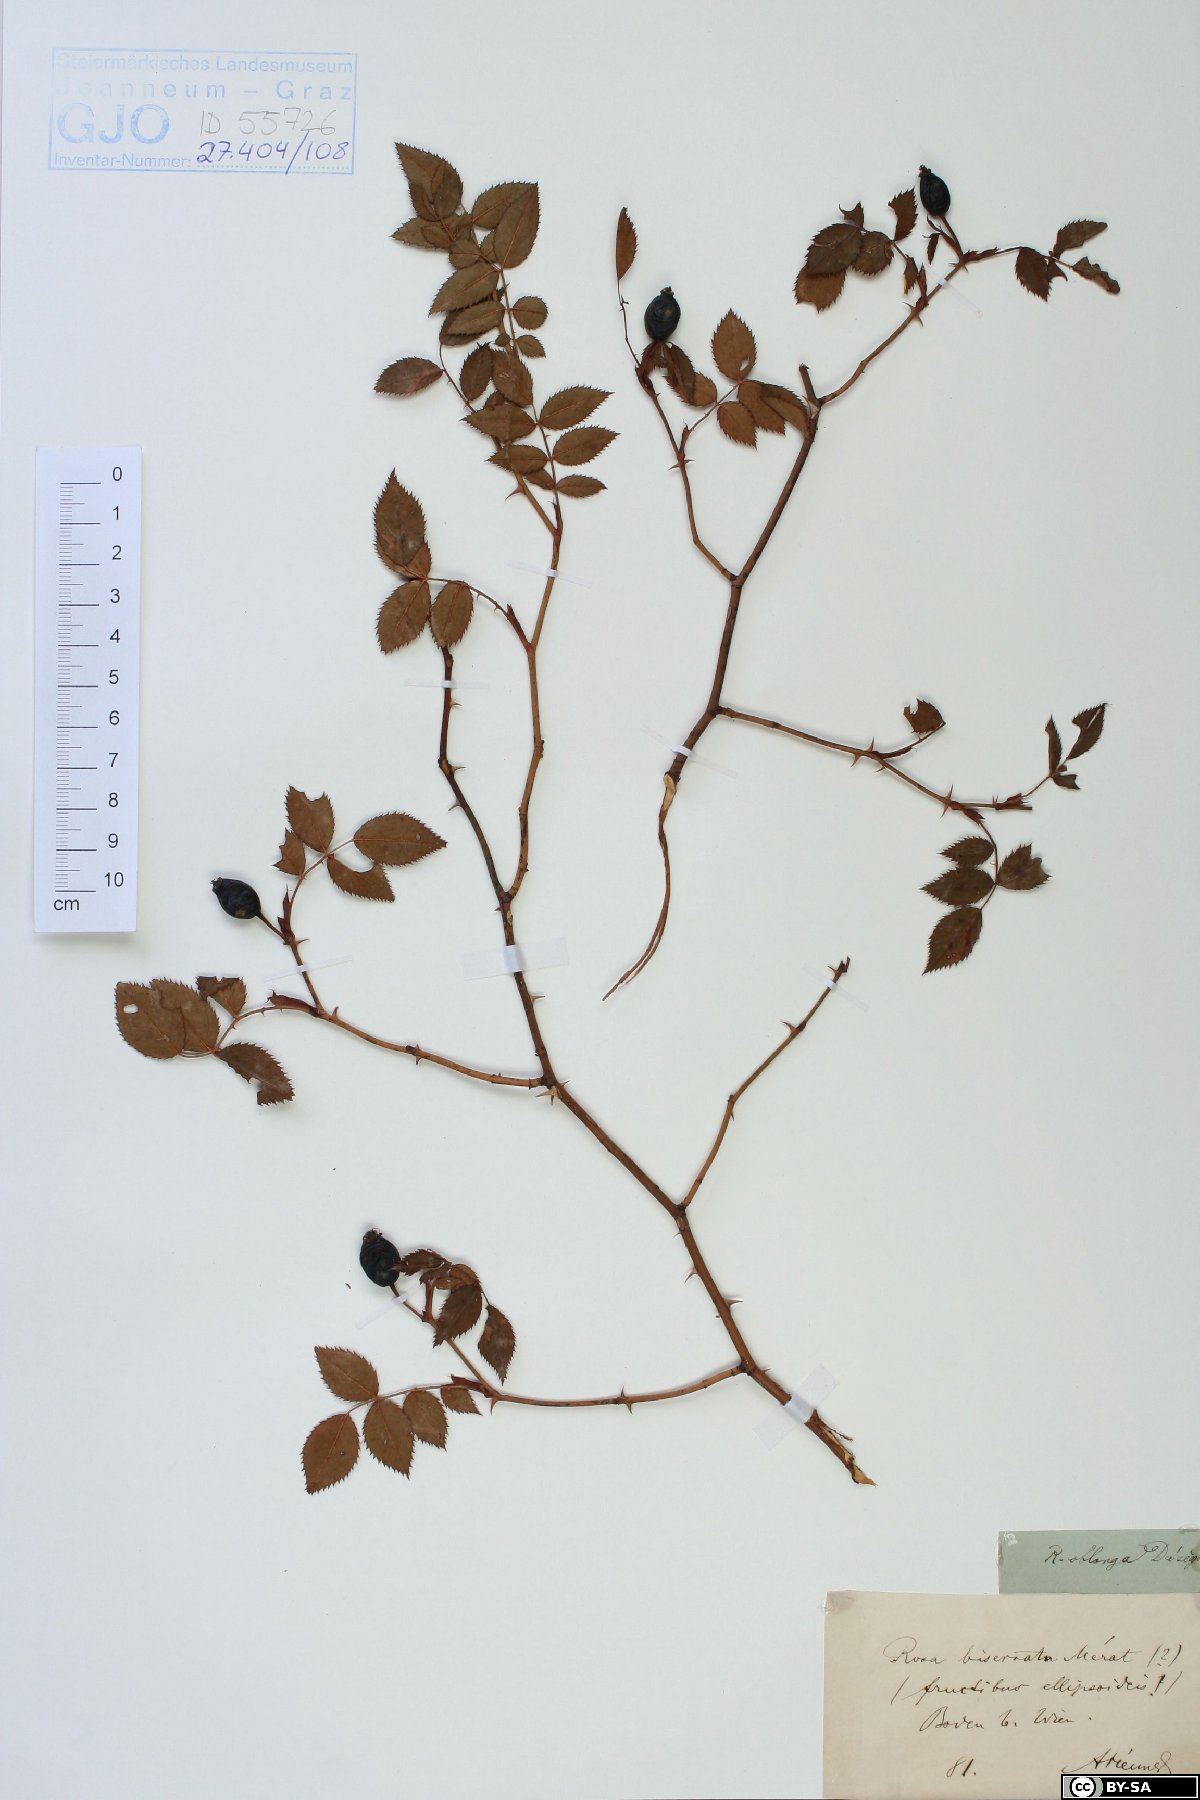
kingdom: Plantae
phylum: Tracheophyta
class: Magnoliopsida
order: Rosales
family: Rosaceae
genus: Rosa
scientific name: Rosa canina
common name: Dog rose
